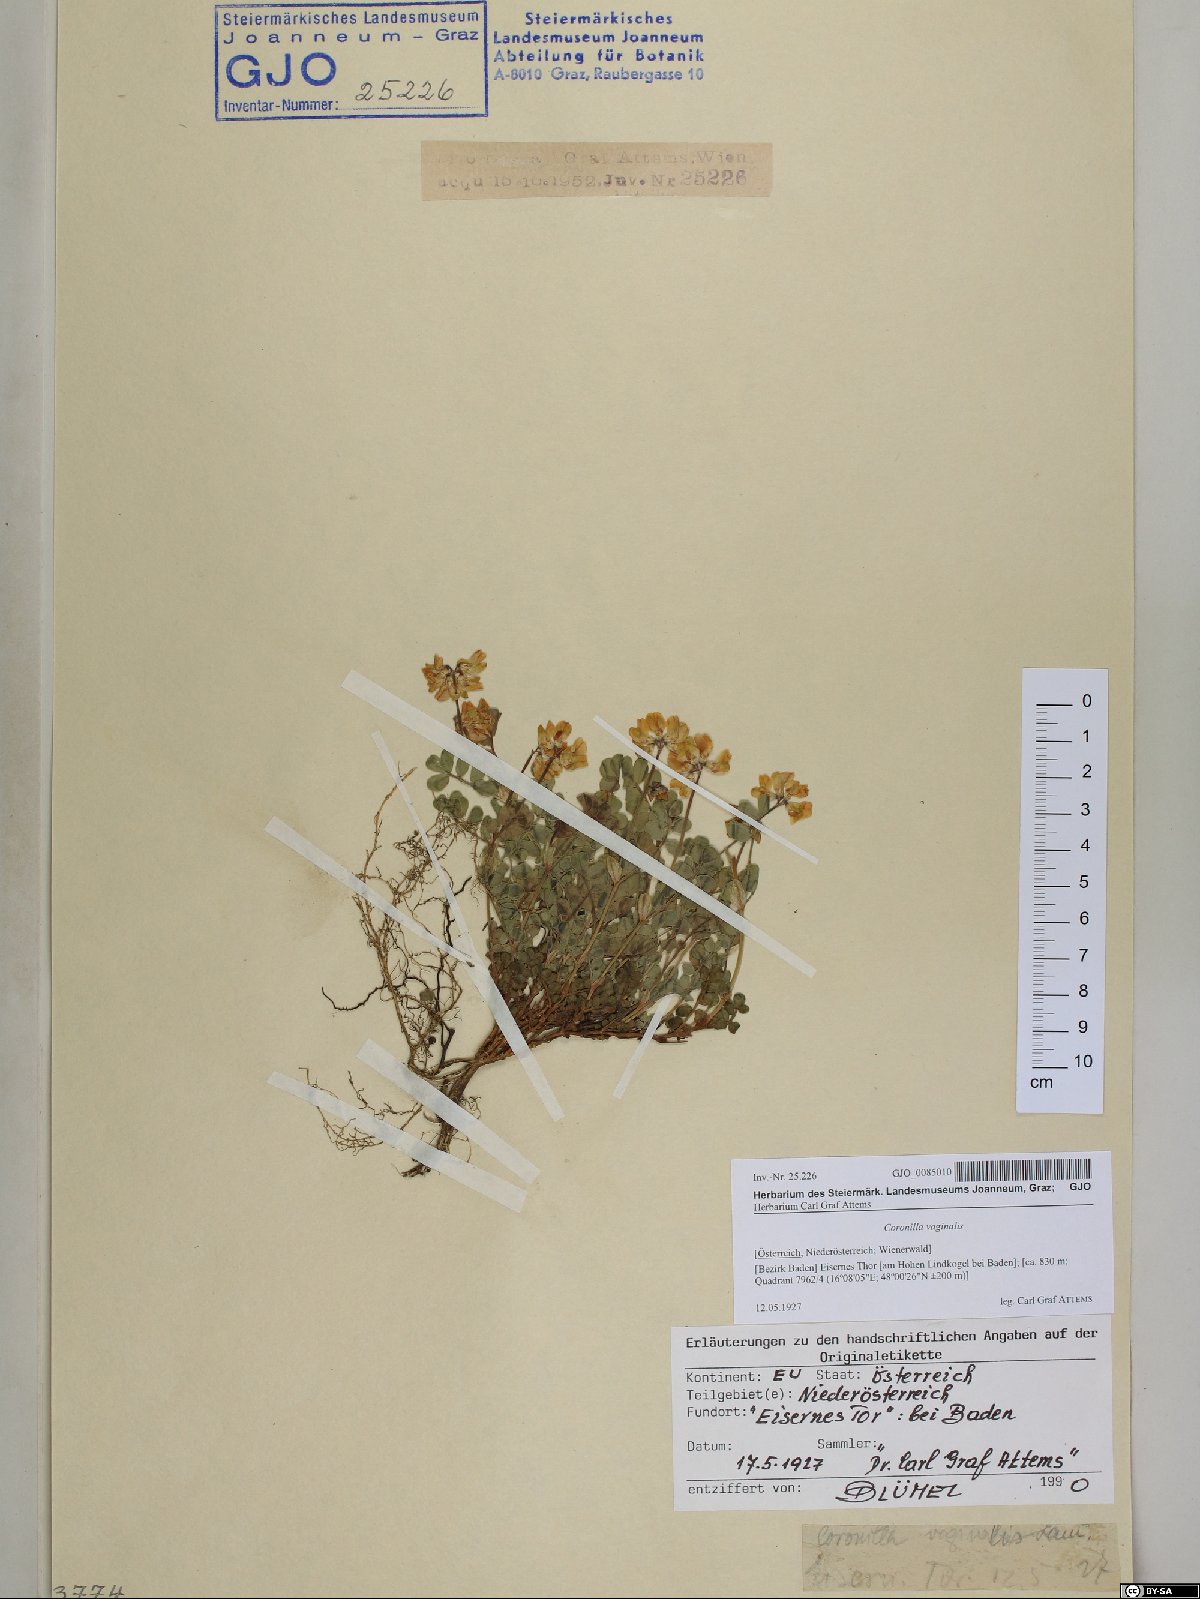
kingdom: Plantae
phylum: Tracheophyta
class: Magnoliopsida
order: Fabales
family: Fabaceae
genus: Coronilla
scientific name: Coronilla vaginalis
